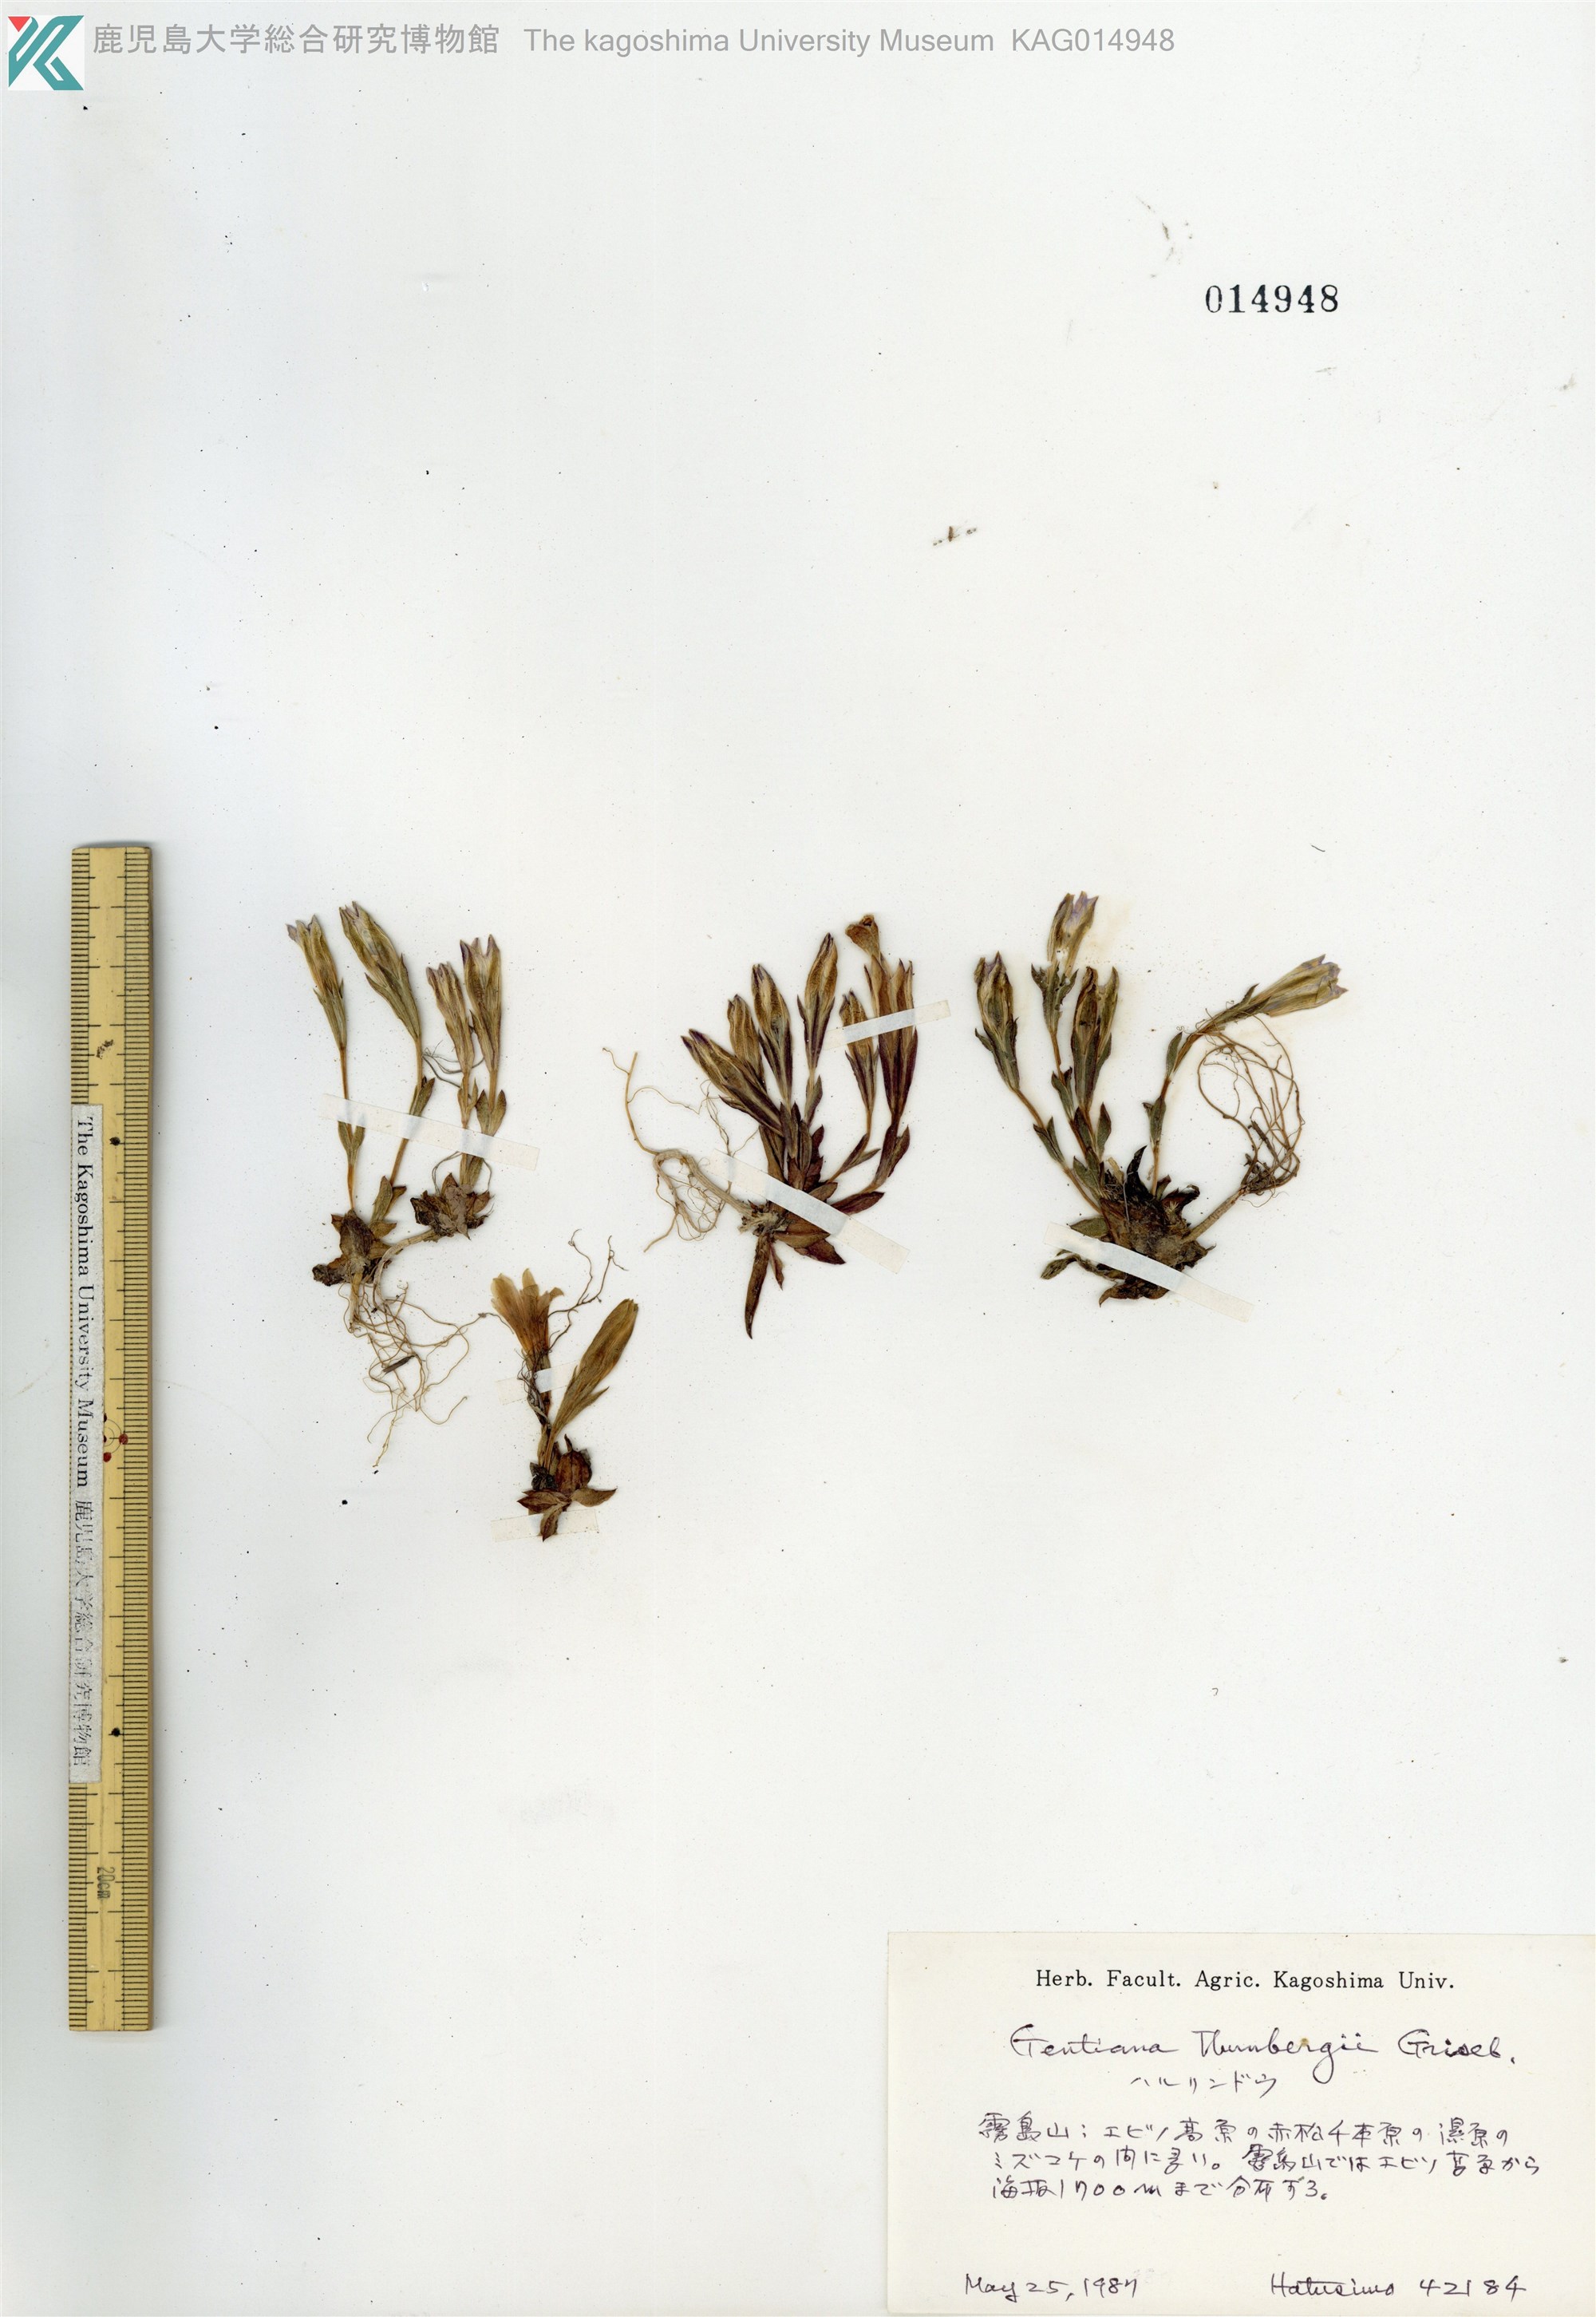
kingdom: Plantae
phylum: Tracheophyta
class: Magnoliopsida
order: Gentianales
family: Gentianaceae
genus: Gentiana
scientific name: Gentiana thunbergii
